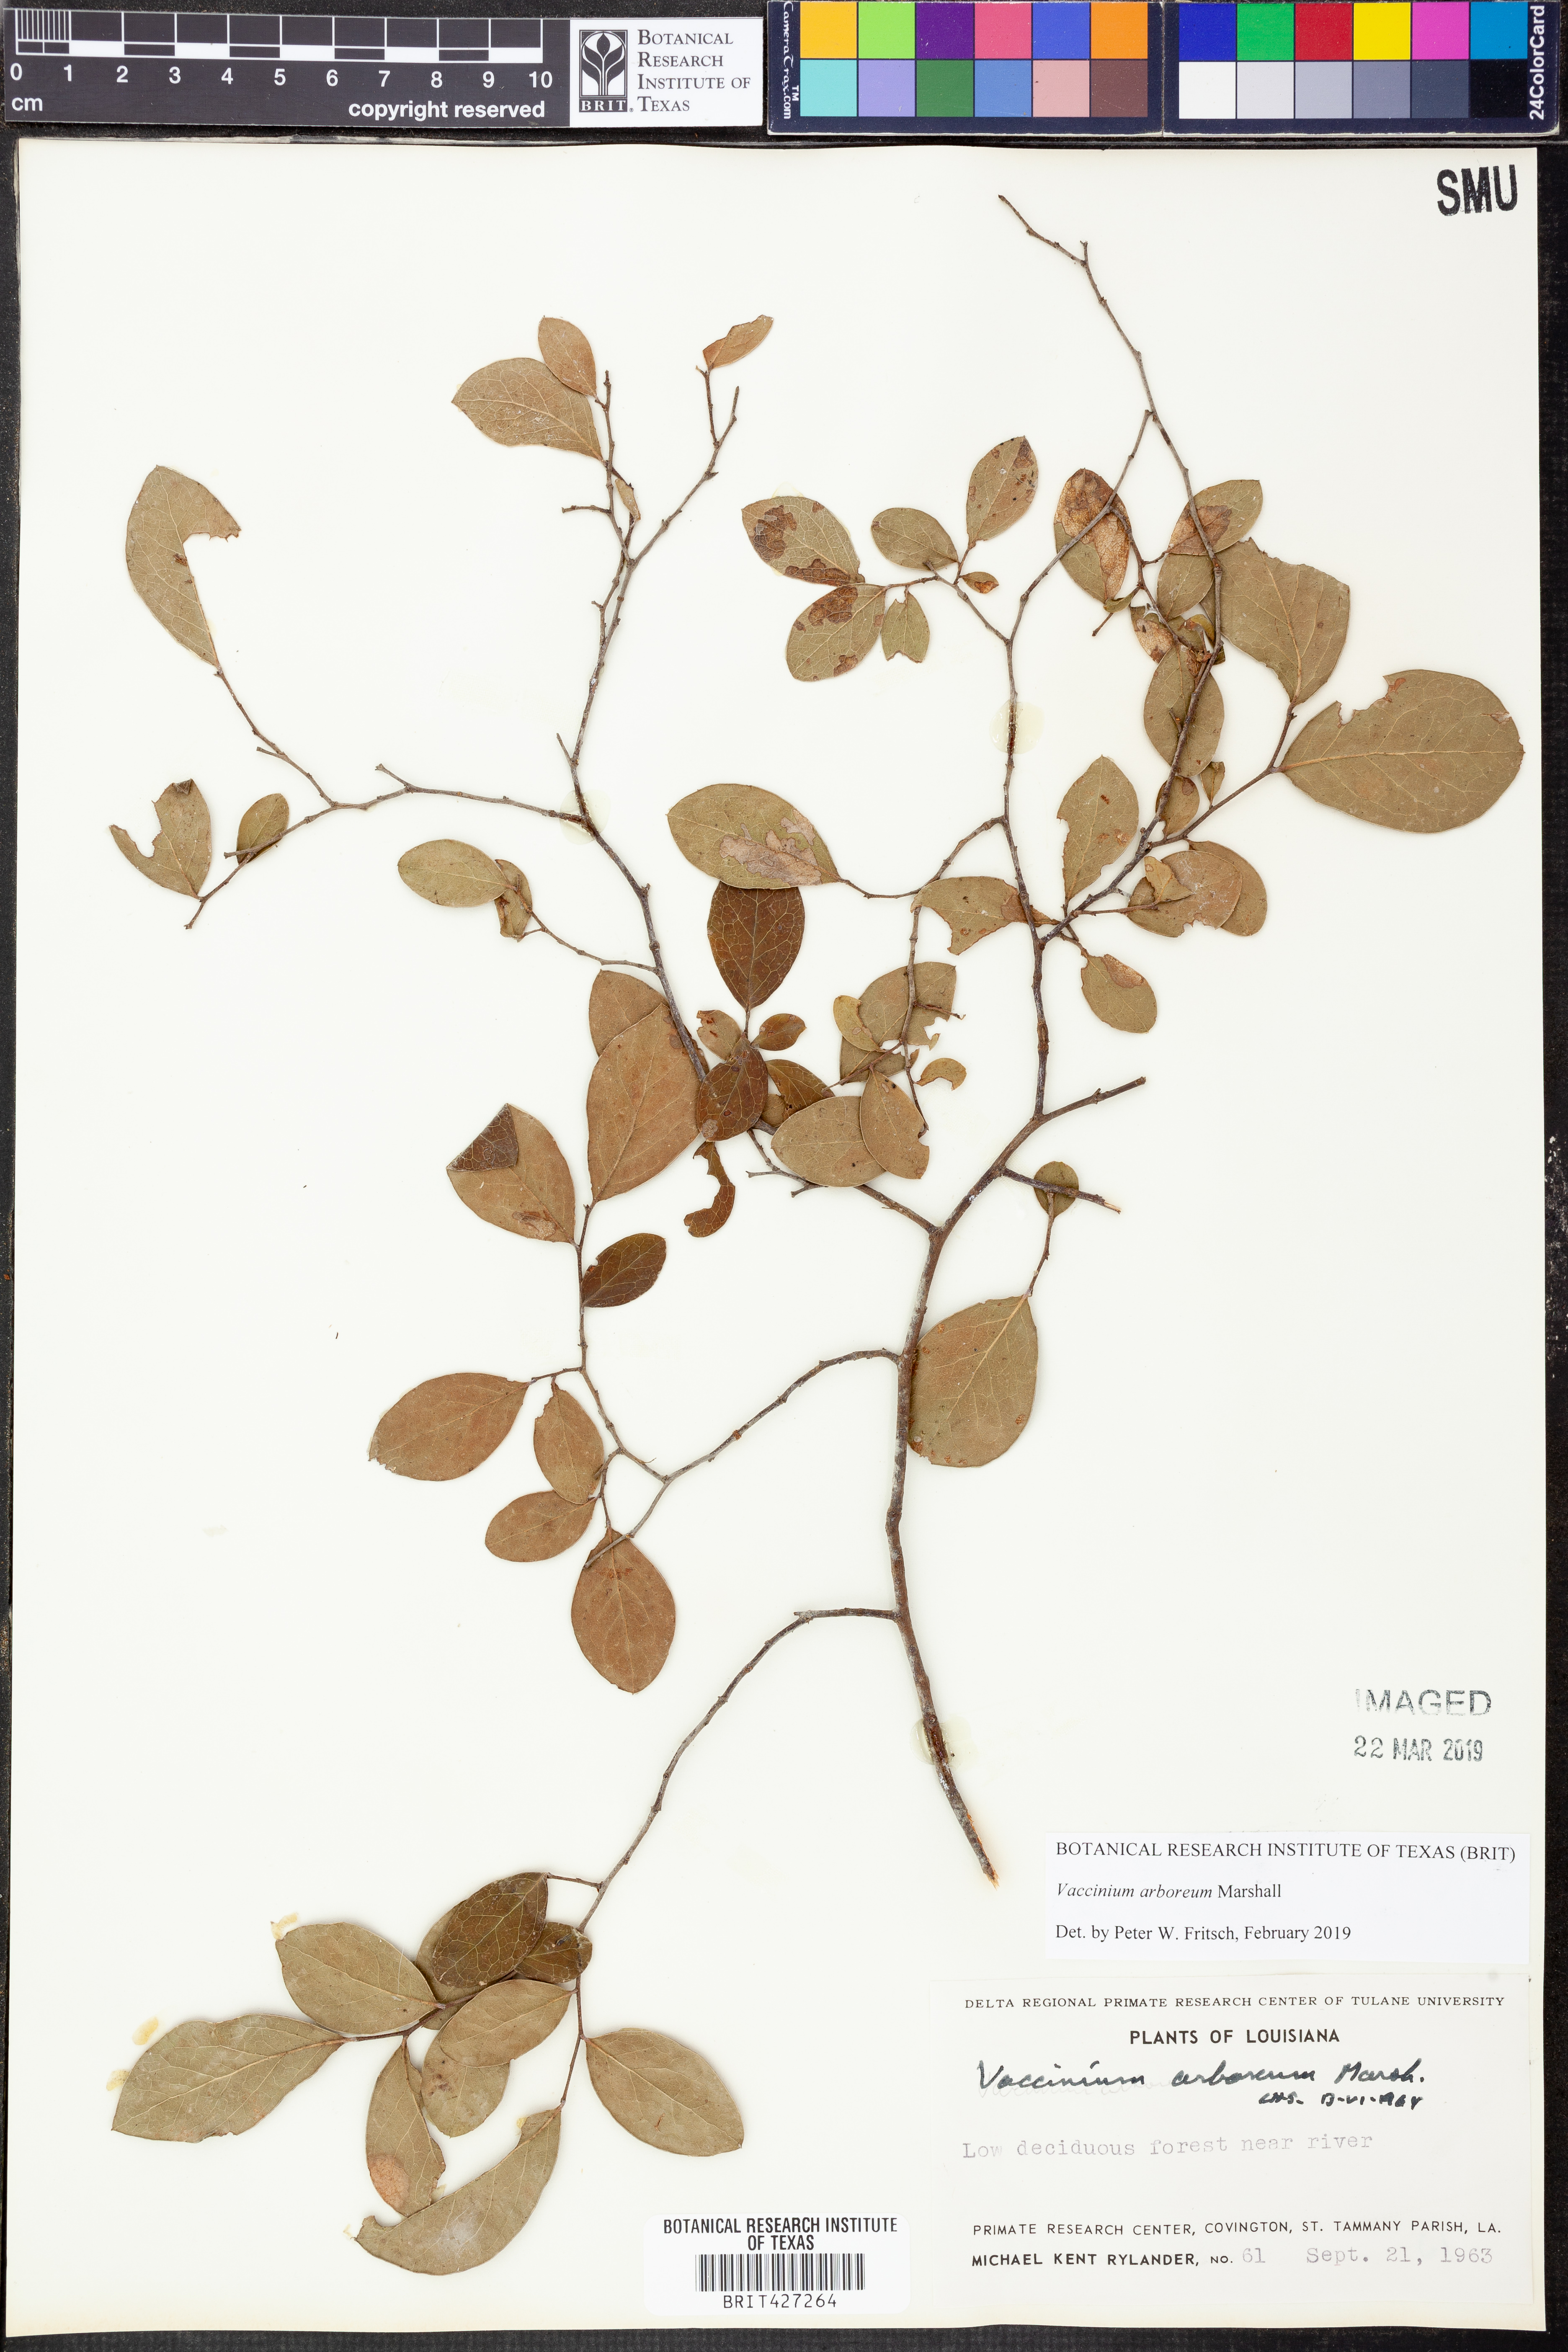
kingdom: Plantae
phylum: Tracheophyta
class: Magnoliopsida
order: Ericales
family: Ericaceae
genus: Vaccinium
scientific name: Vaccinium arboreum
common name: Farkleberry
